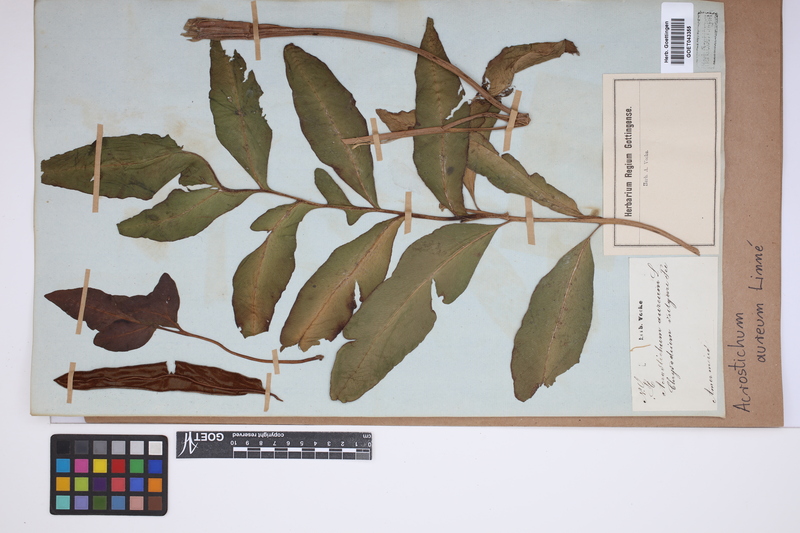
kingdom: Plantae
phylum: Tracheophyta
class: Polypodiopsida
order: Polypodiales
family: Pteridaceae
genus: Acrostichum
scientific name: Acrostichum aureum
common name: Leather fern
